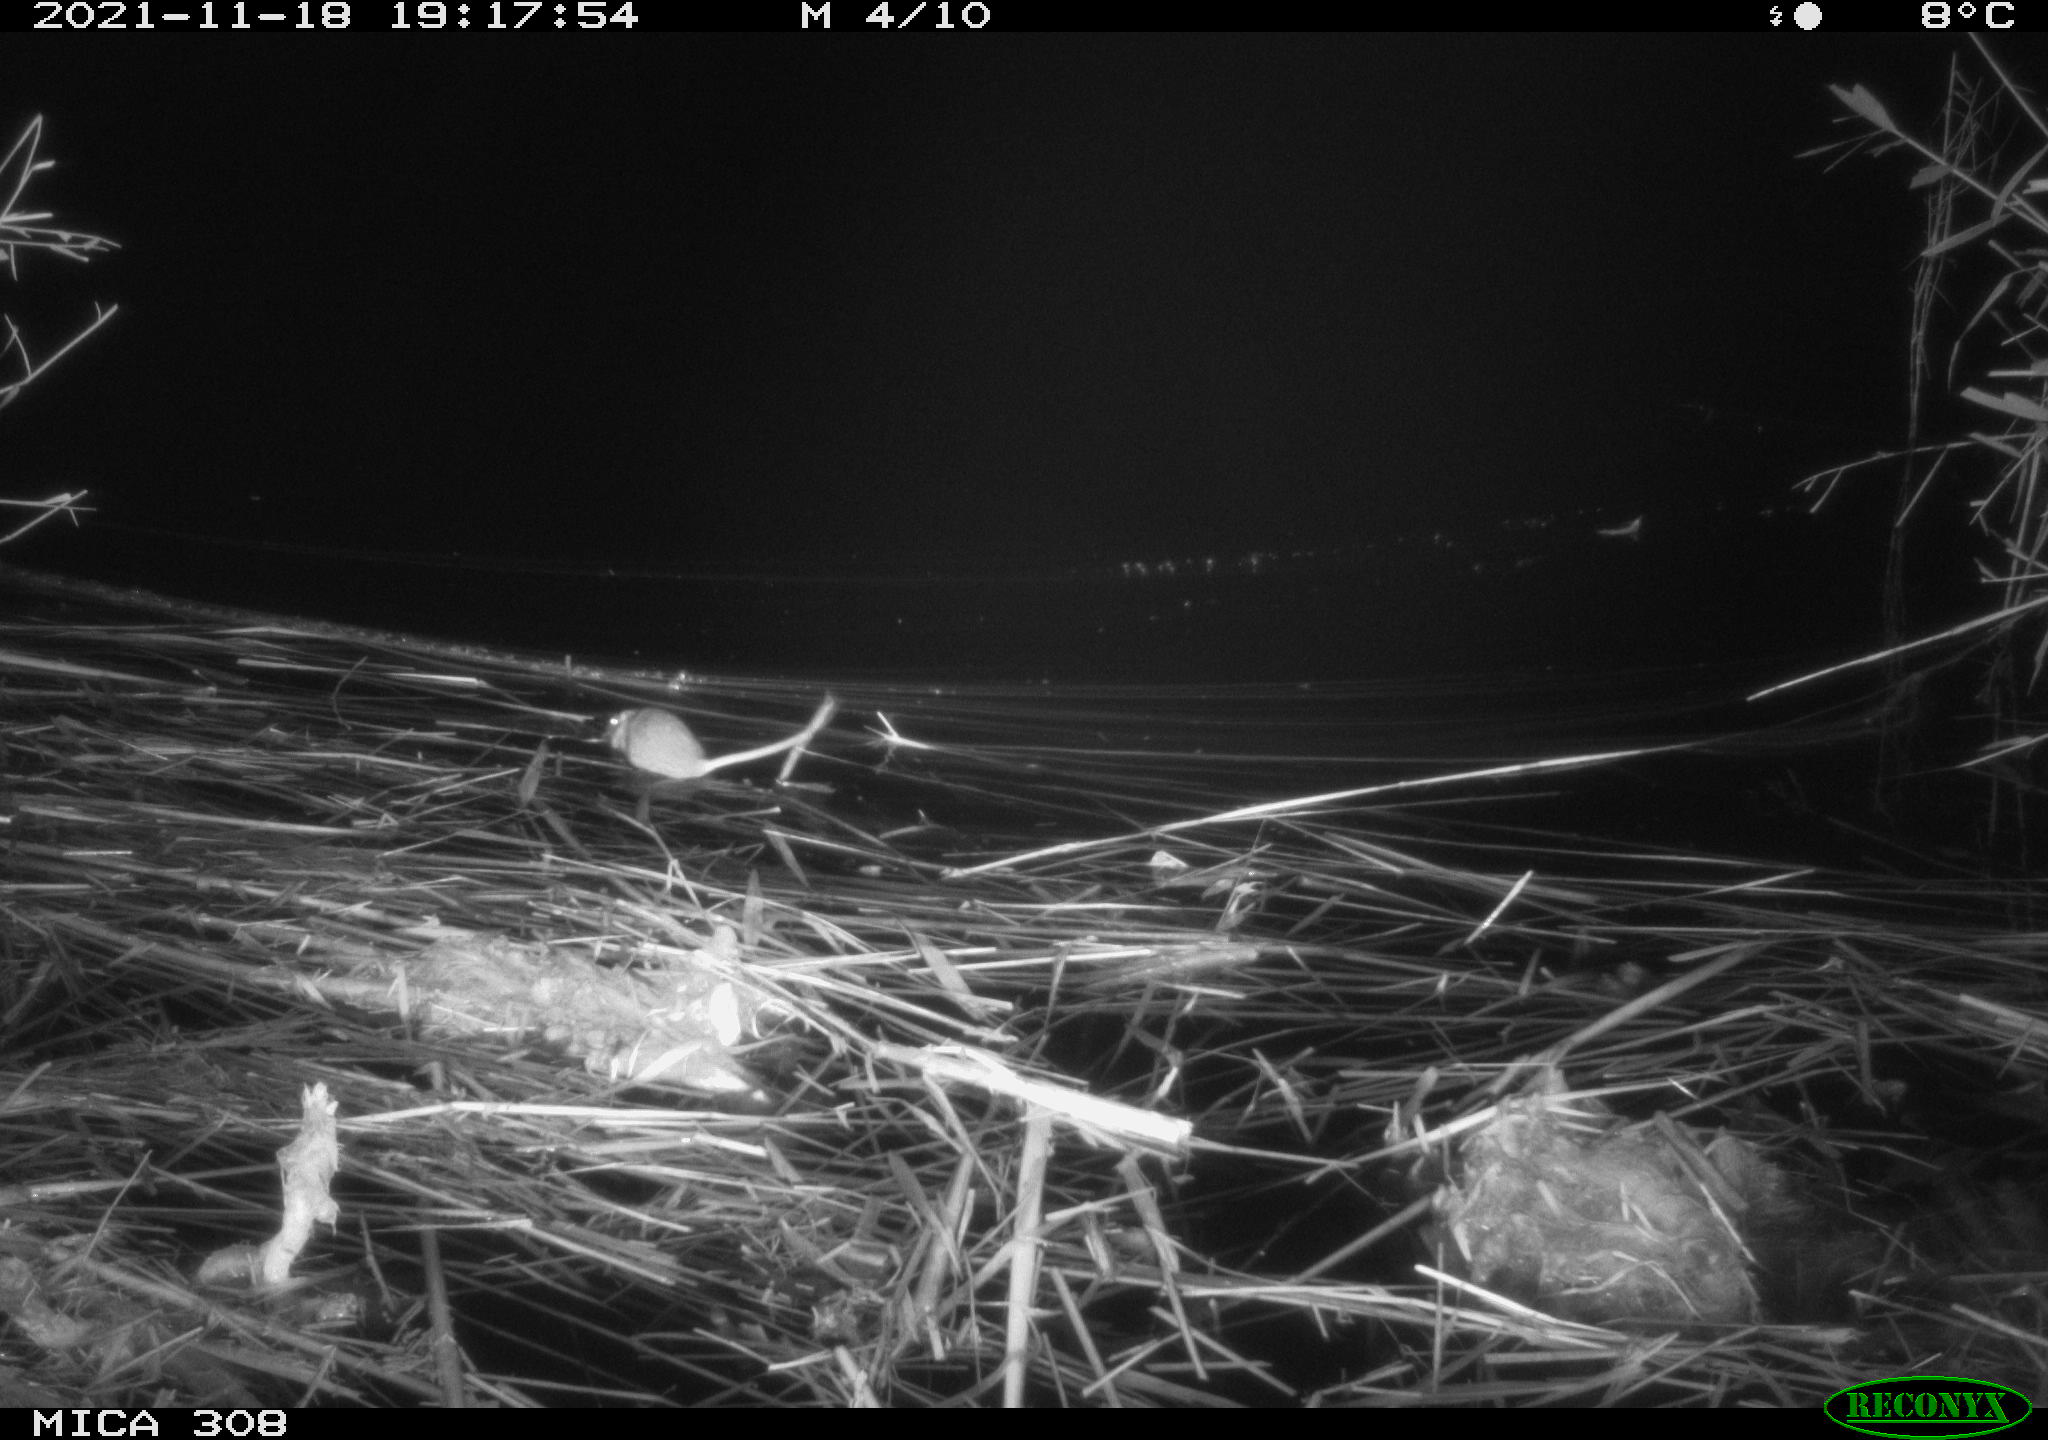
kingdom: Animalia
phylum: Chordata
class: Mammalia
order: Rodentia
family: Muridae
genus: Rattus
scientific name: Rattus norvegicus
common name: Brown rat
